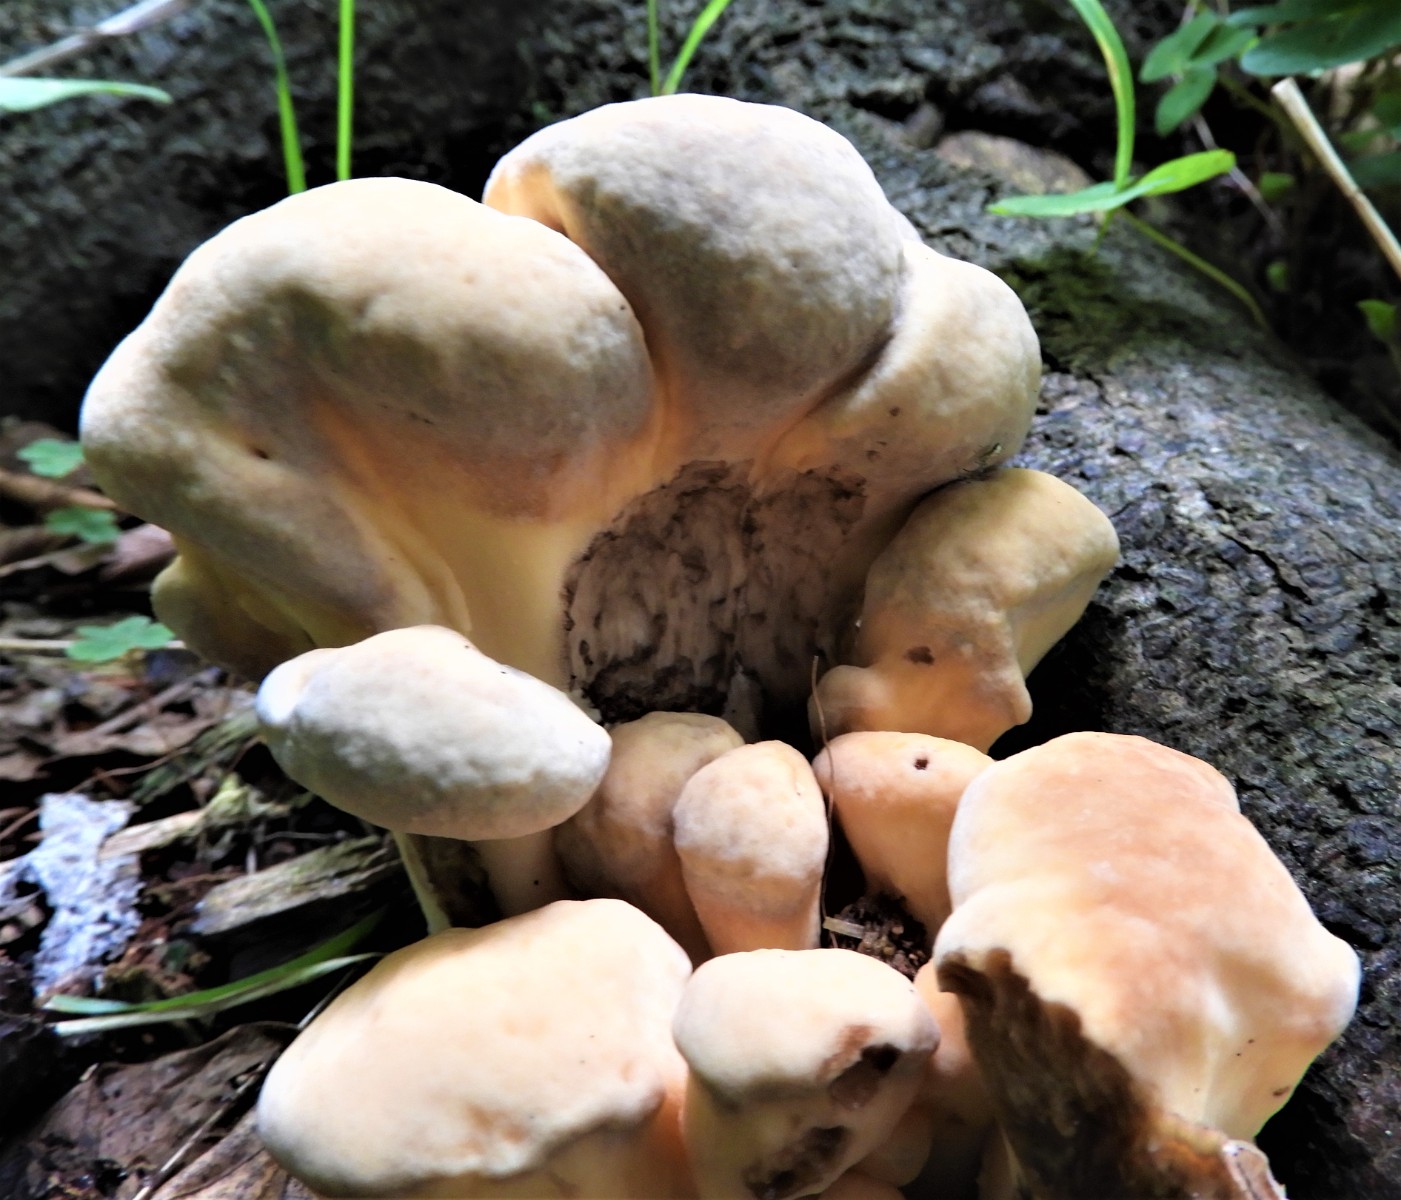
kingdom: Fungi
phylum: Basidiomycota
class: Agaricomycetes
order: Polyporales
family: Meripilaceae
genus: Meripilus
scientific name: Meripilus giganteus
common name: kæmpeporesvamp
